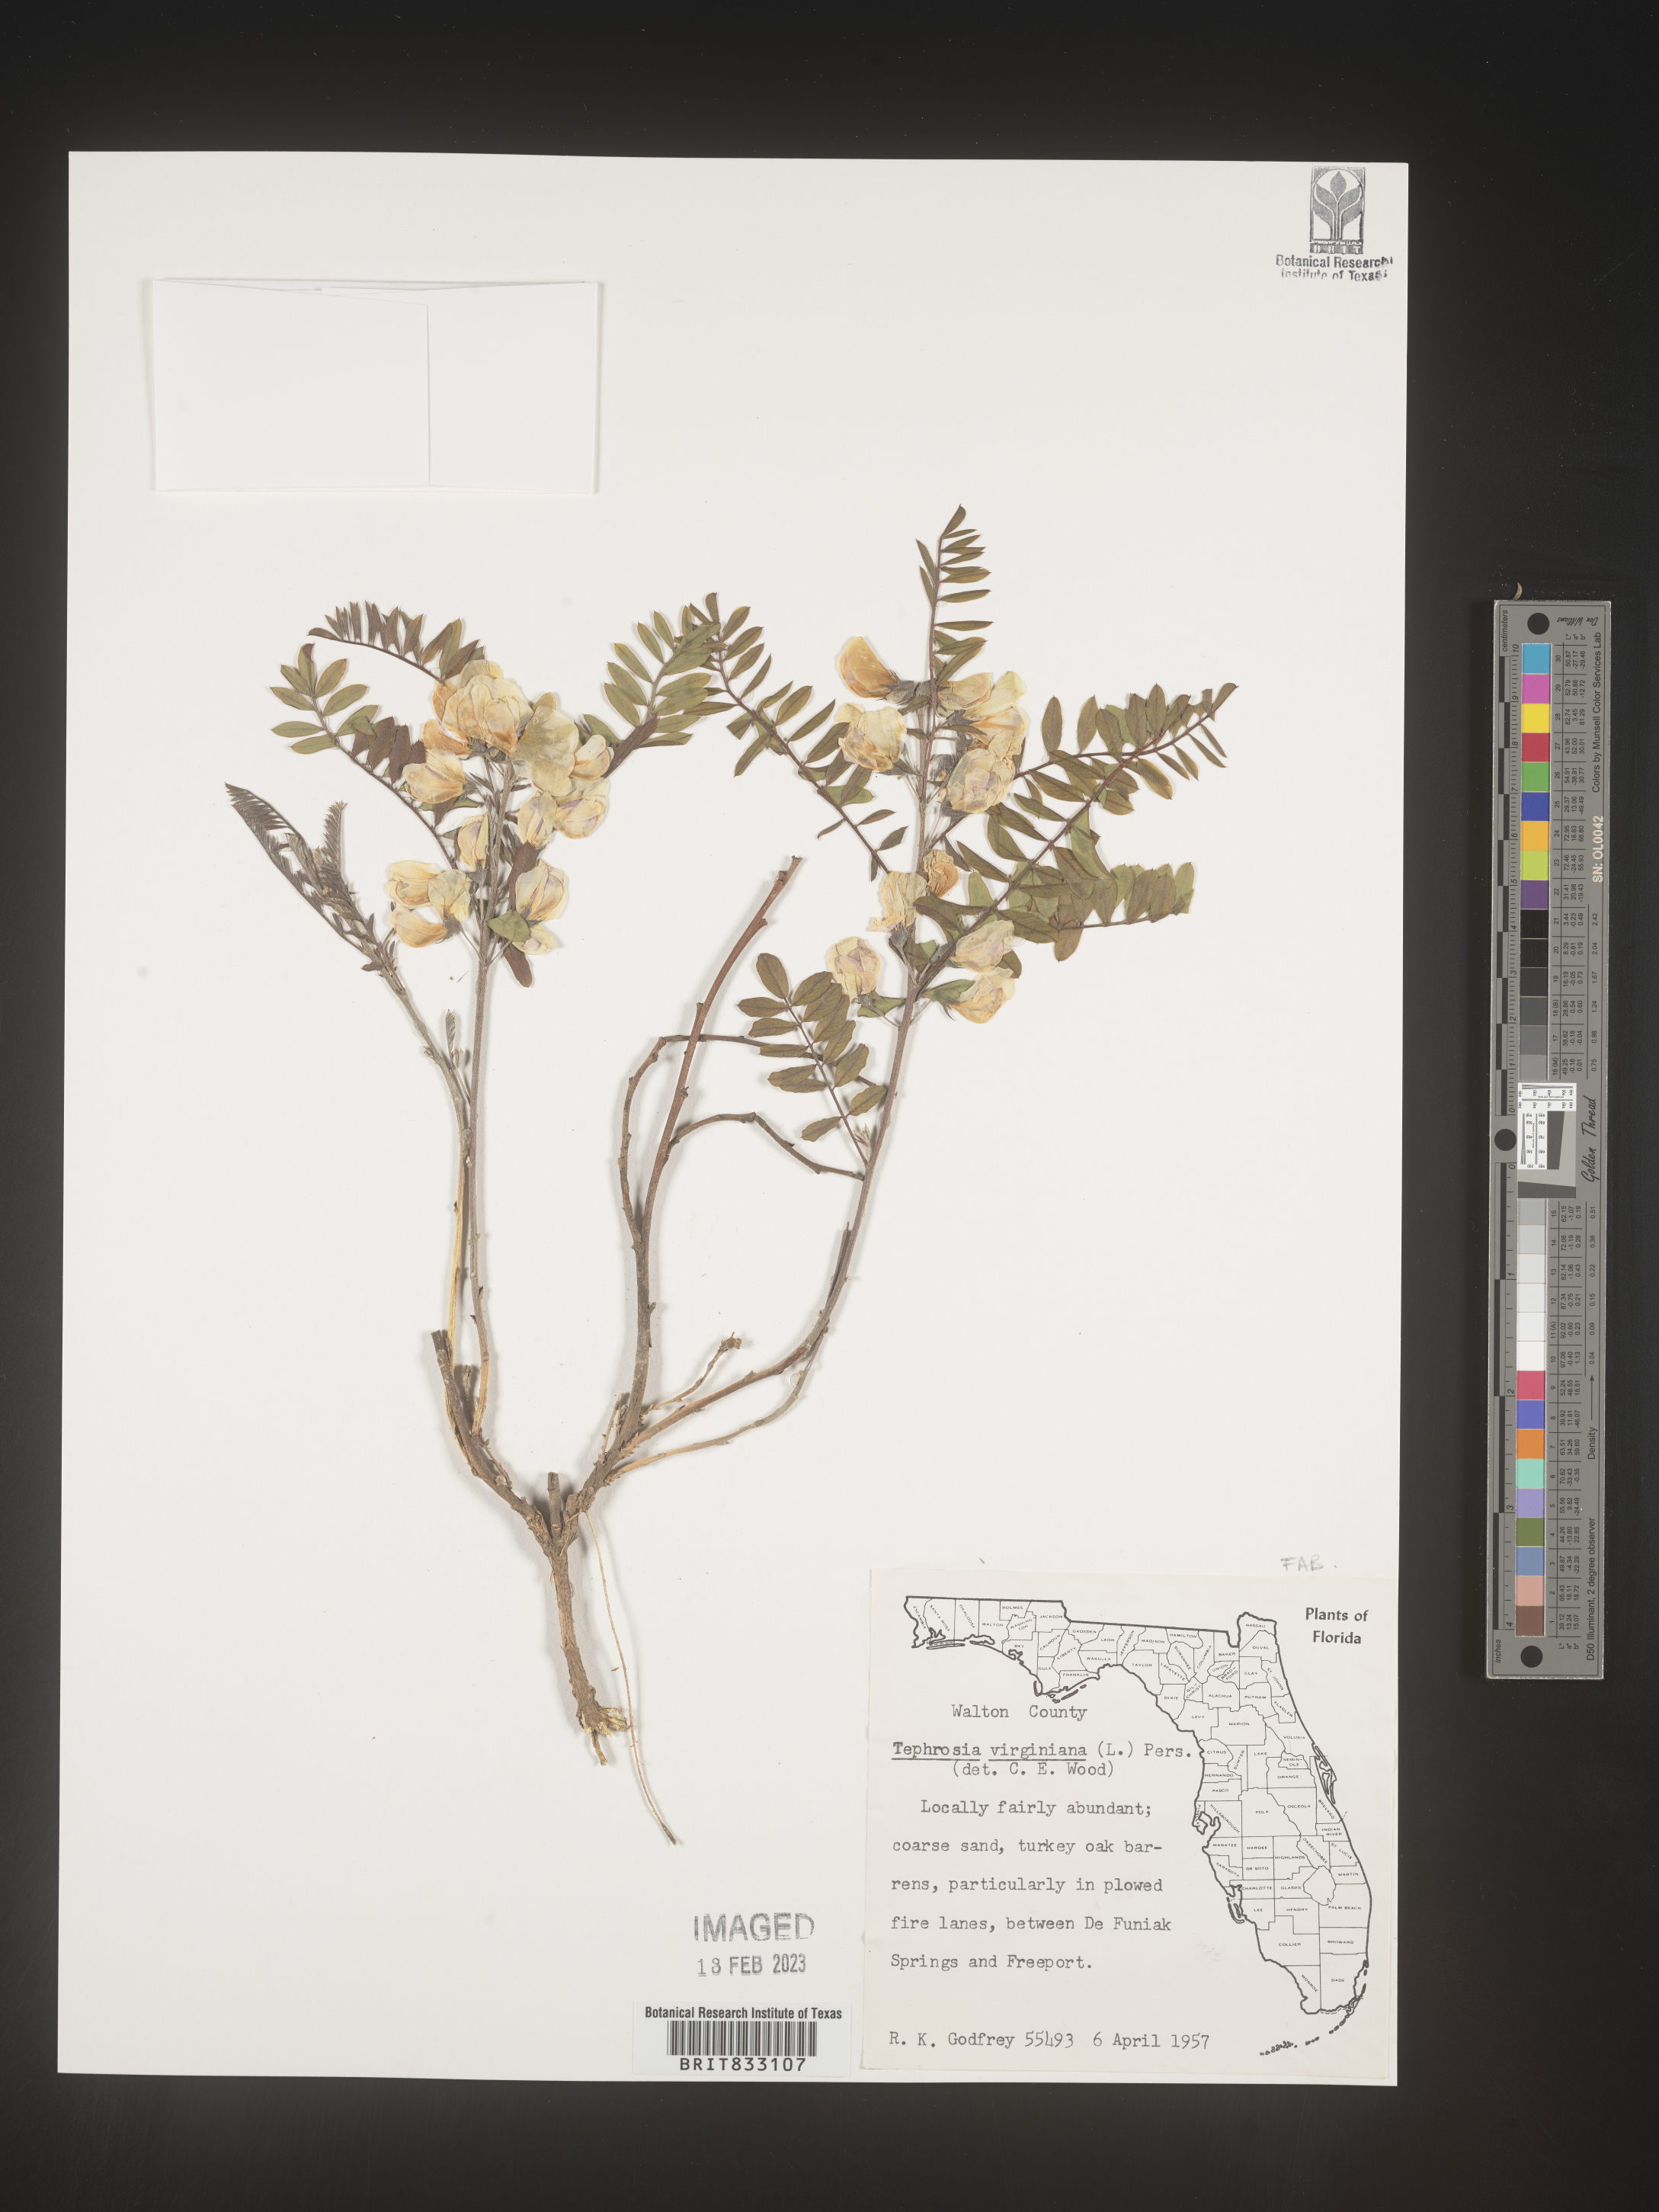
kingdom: Plantae
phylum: Tracheophyta
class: Magnoliopsida
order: Fabales
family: Fabaceae
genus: Tephrosia
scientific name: Tephrosia virginiana
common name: Rabbit-pea
